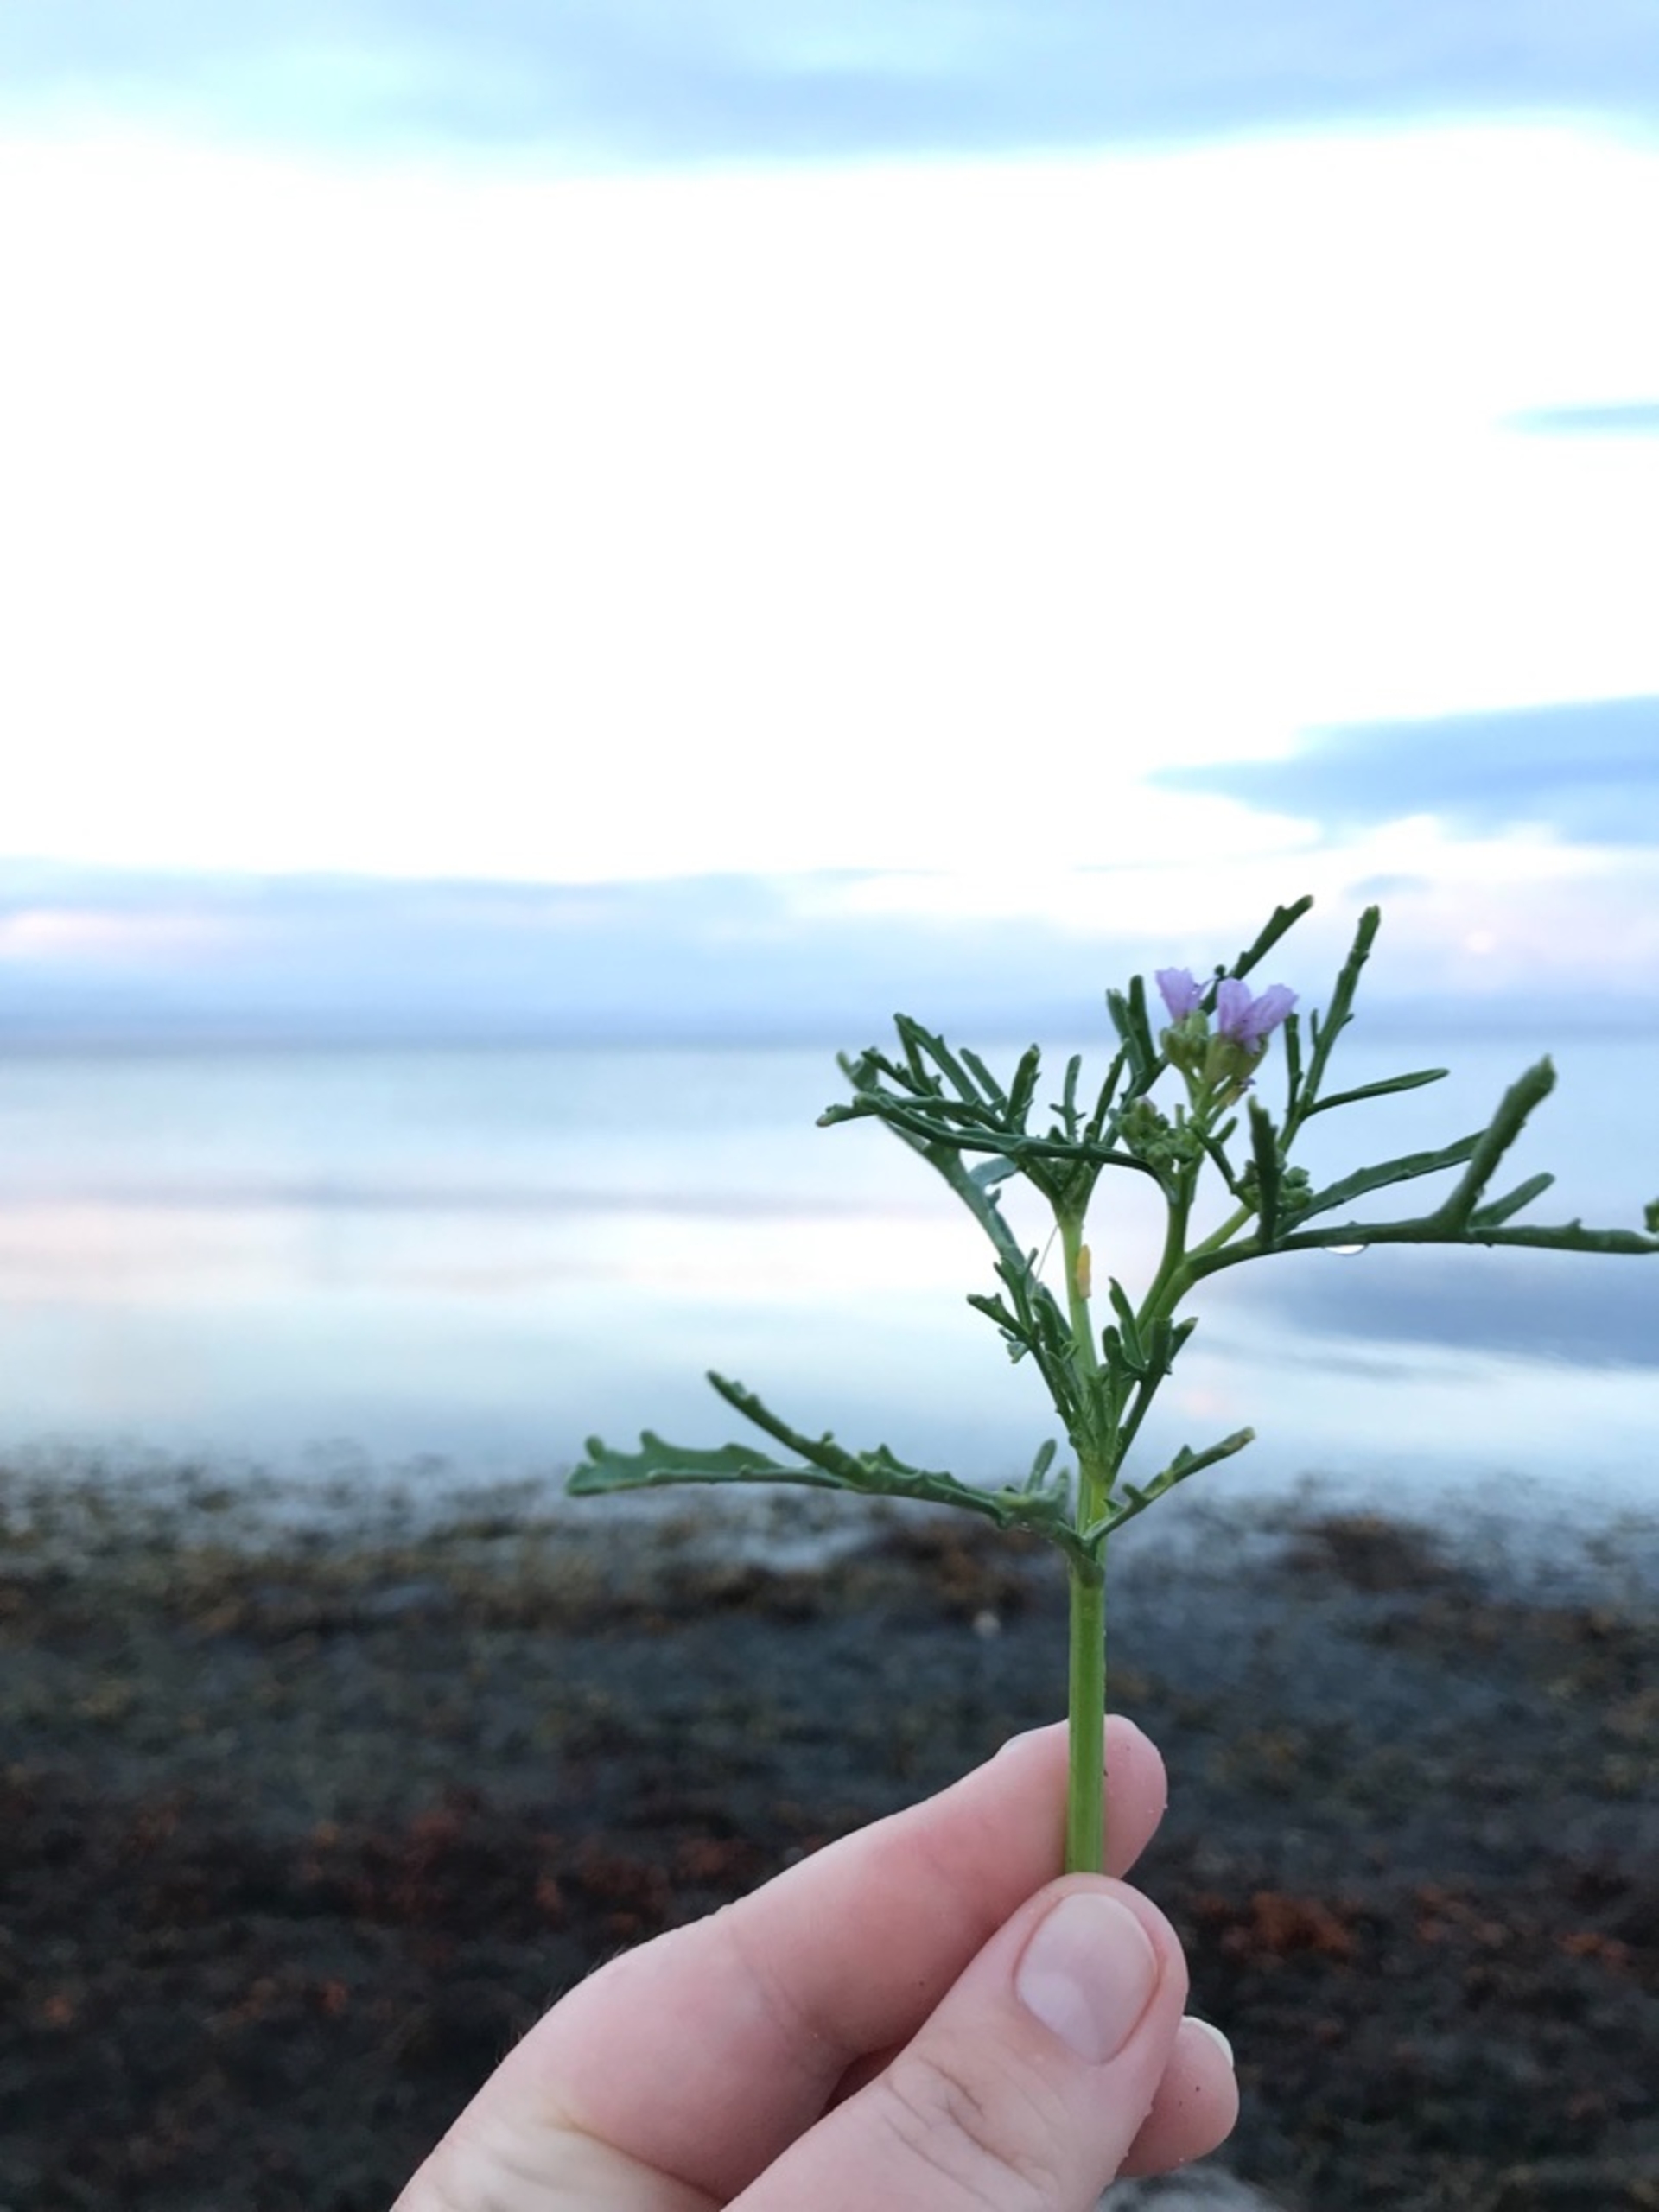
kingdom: Plantae
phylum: Tracheophyta
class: Magnoliopsida
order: Brassicales
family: Brassicaceae
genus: Cakile
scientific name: Cakile maritima
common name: Strandsennep
